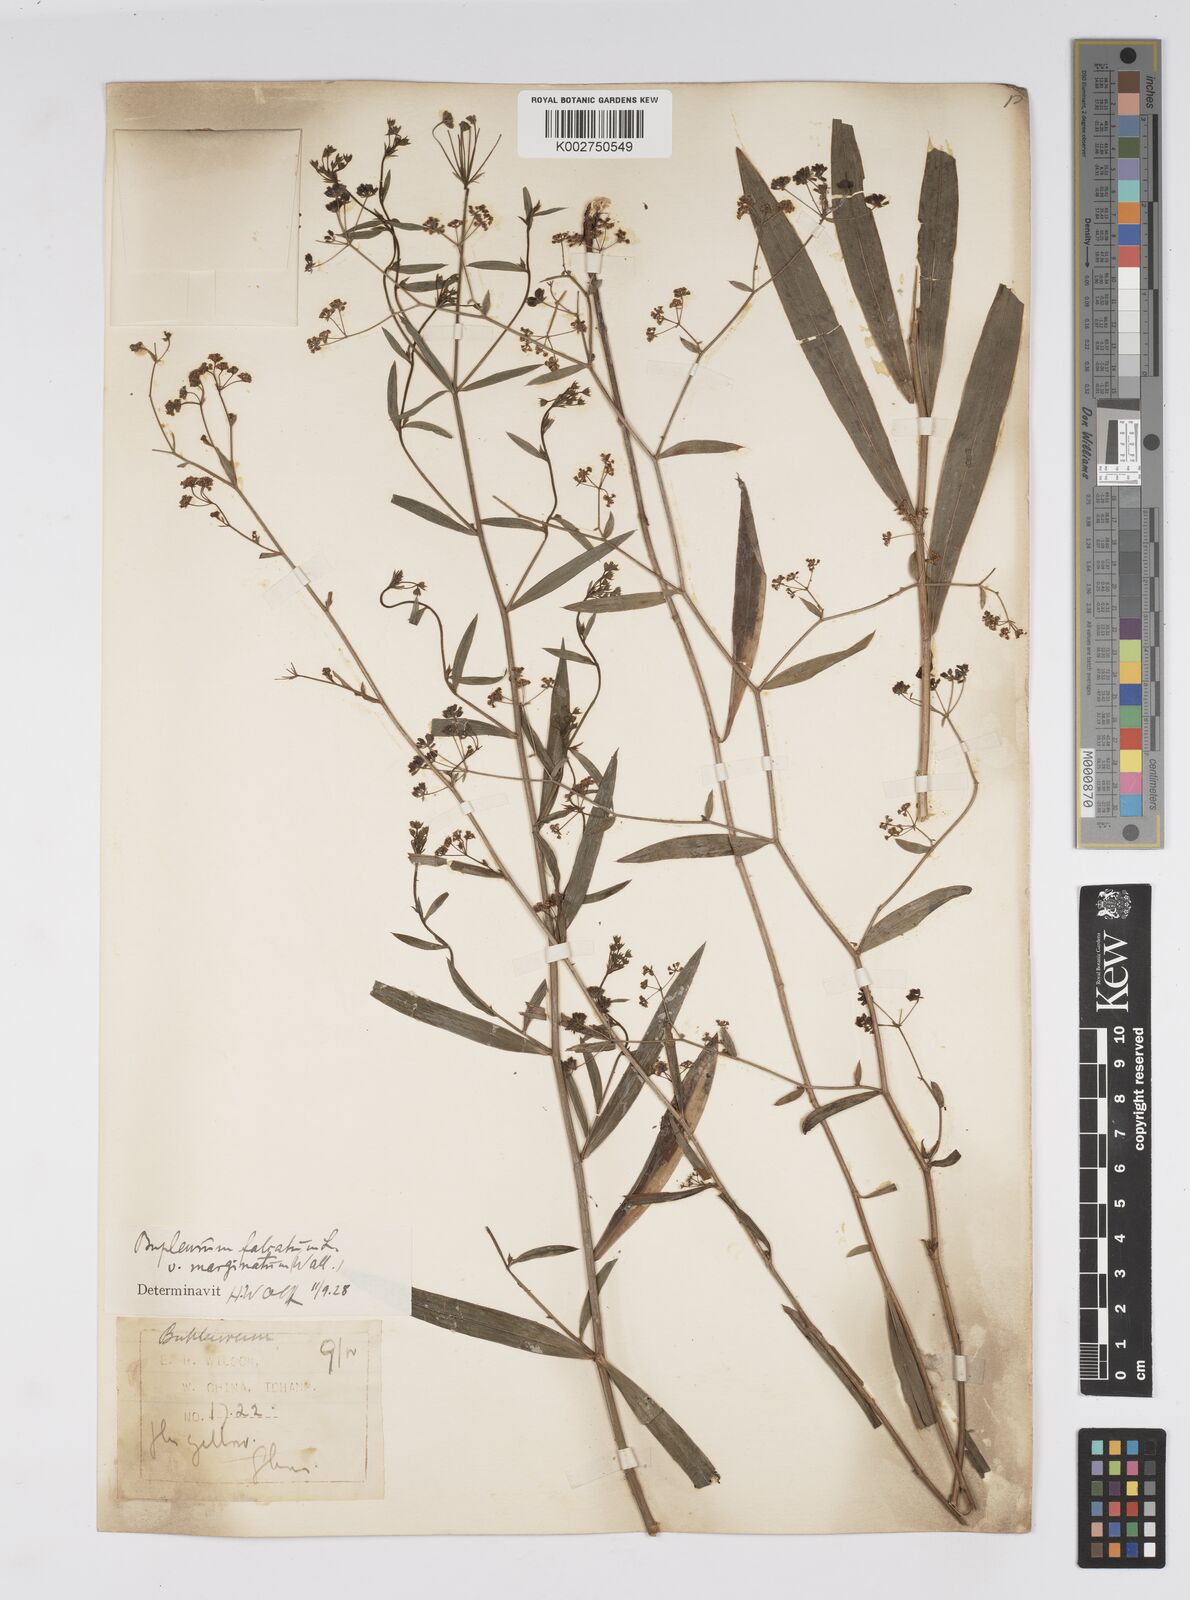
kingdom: Plantae
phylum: Tracheophyta
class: Magnoliopsida
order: Apiales
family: Apiaceae
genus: Bupleurum
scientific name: Bupleurum marginatum
